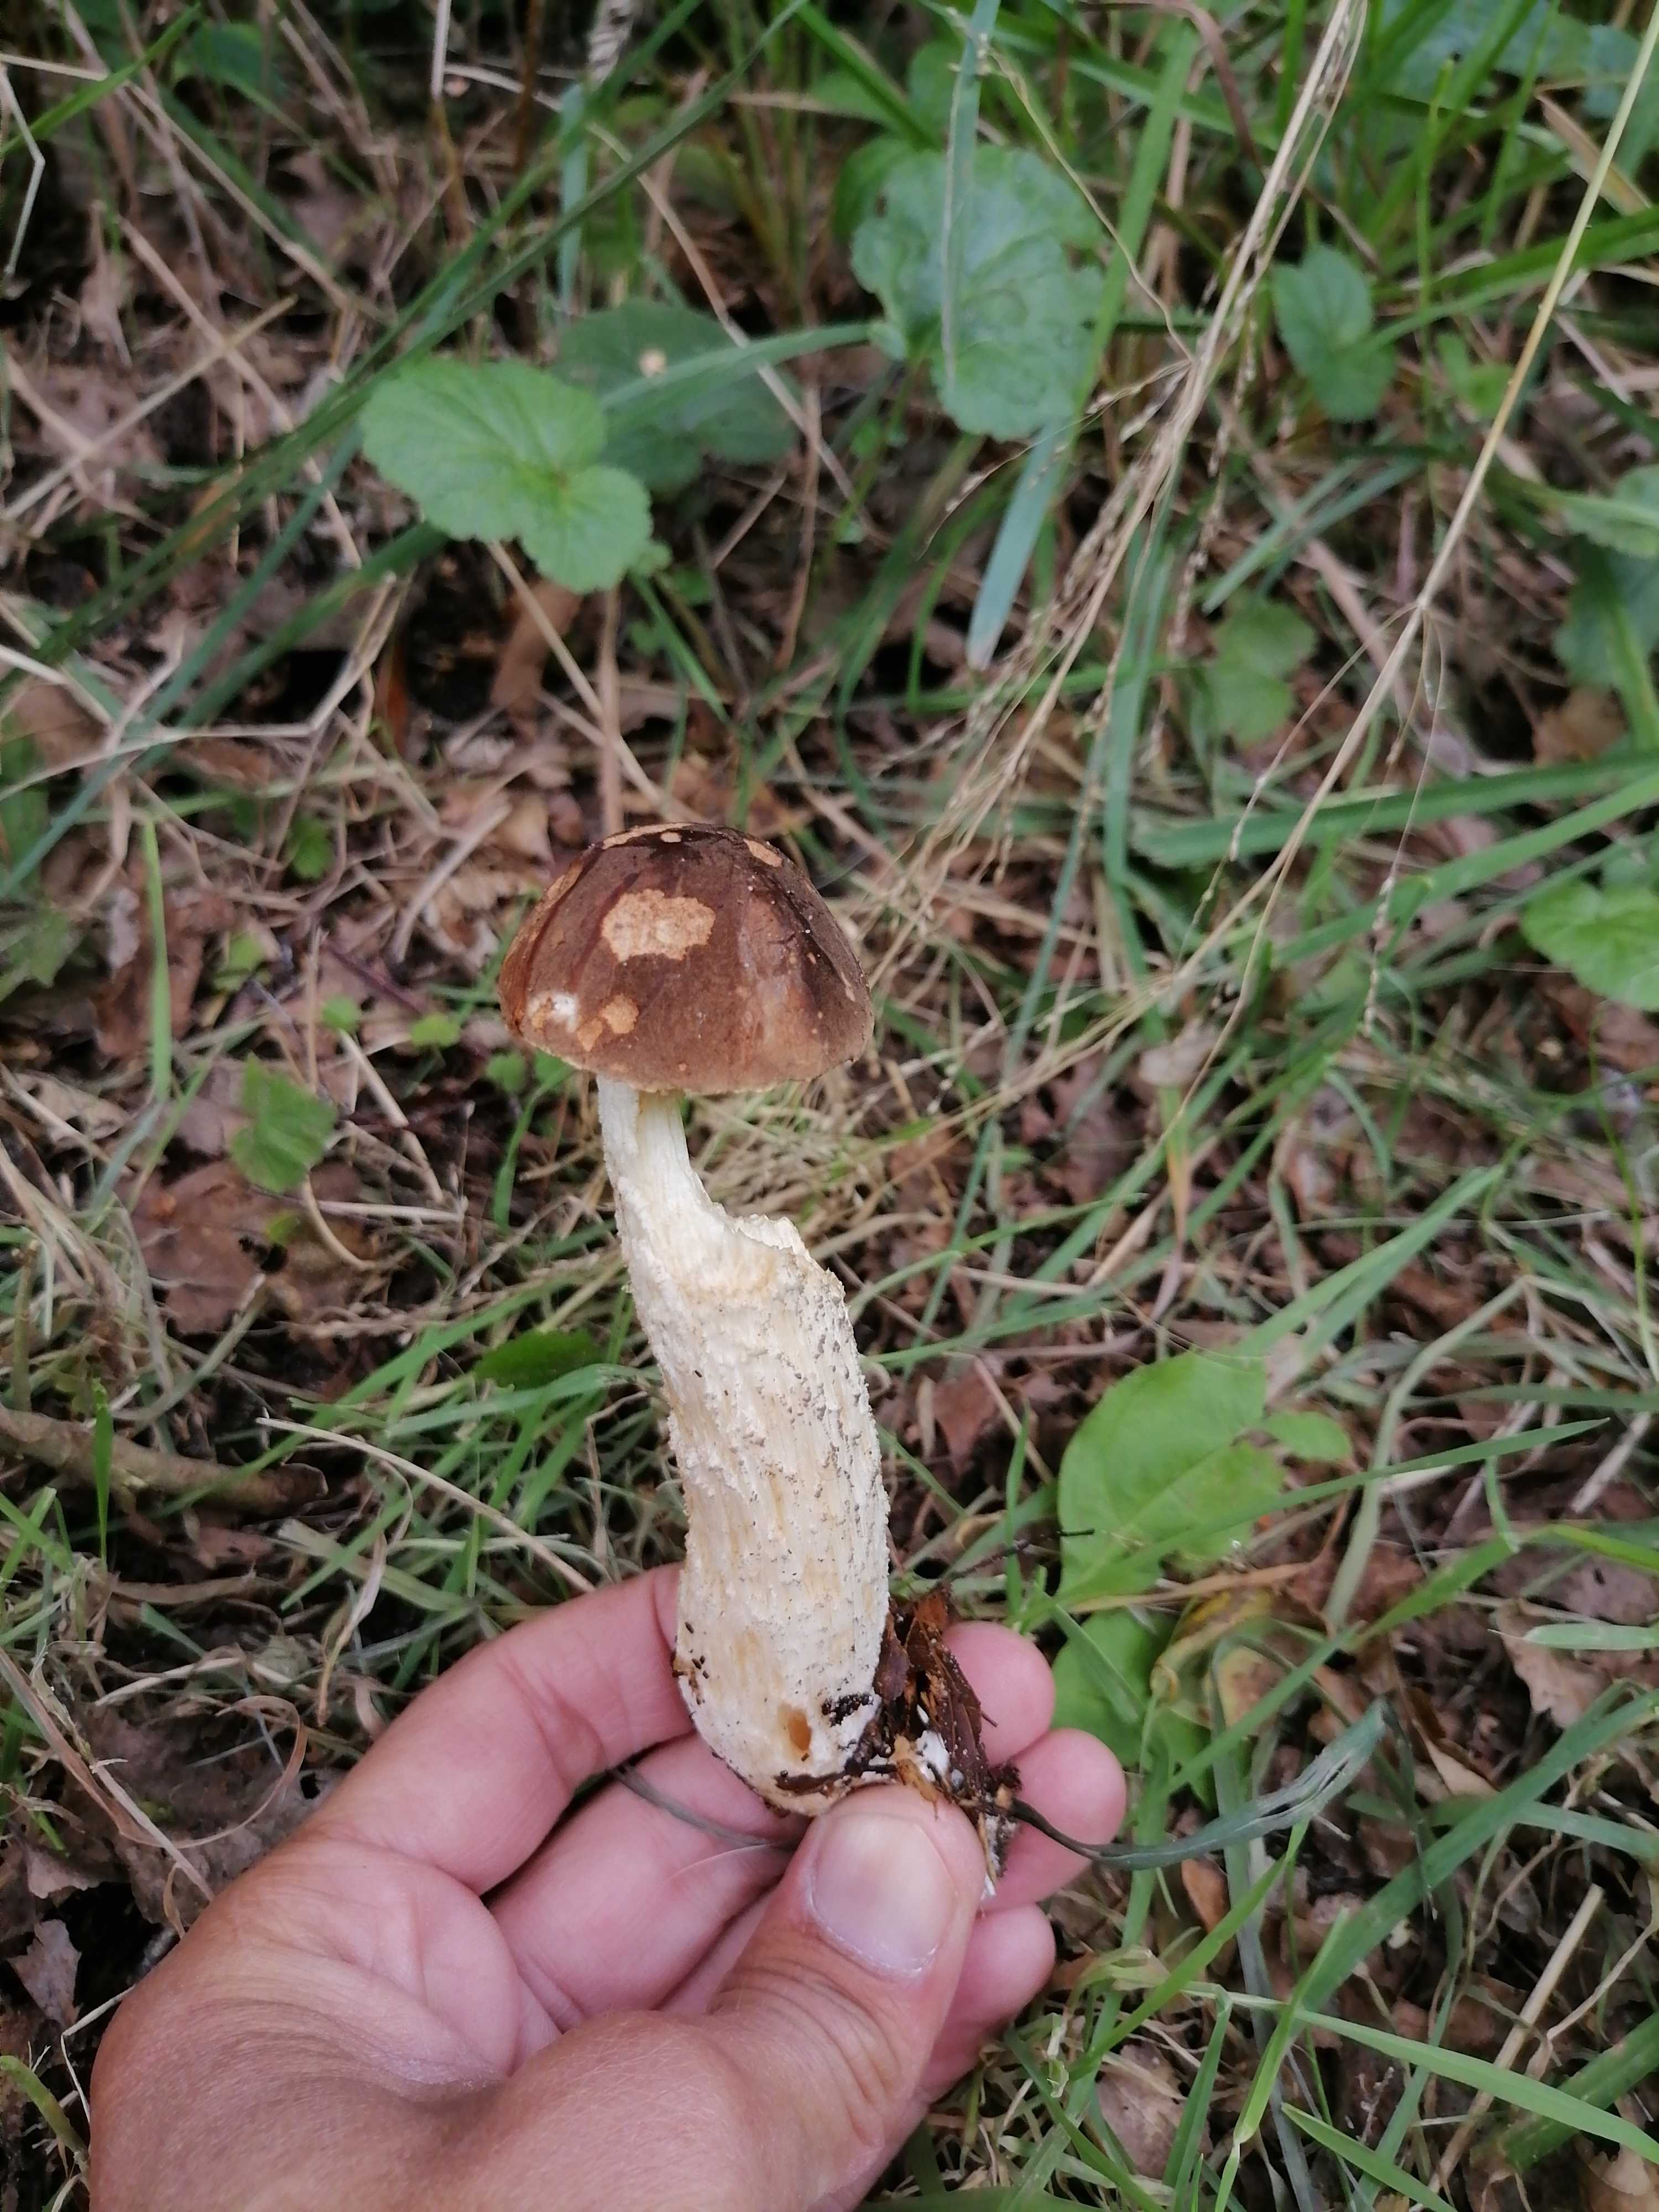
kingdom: Fungi
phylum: Basidiomycota
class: Agaricomycetes
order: Boletales
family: Boletaceae
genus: Leccinum
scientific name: Leccinum
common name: skælrørhat
